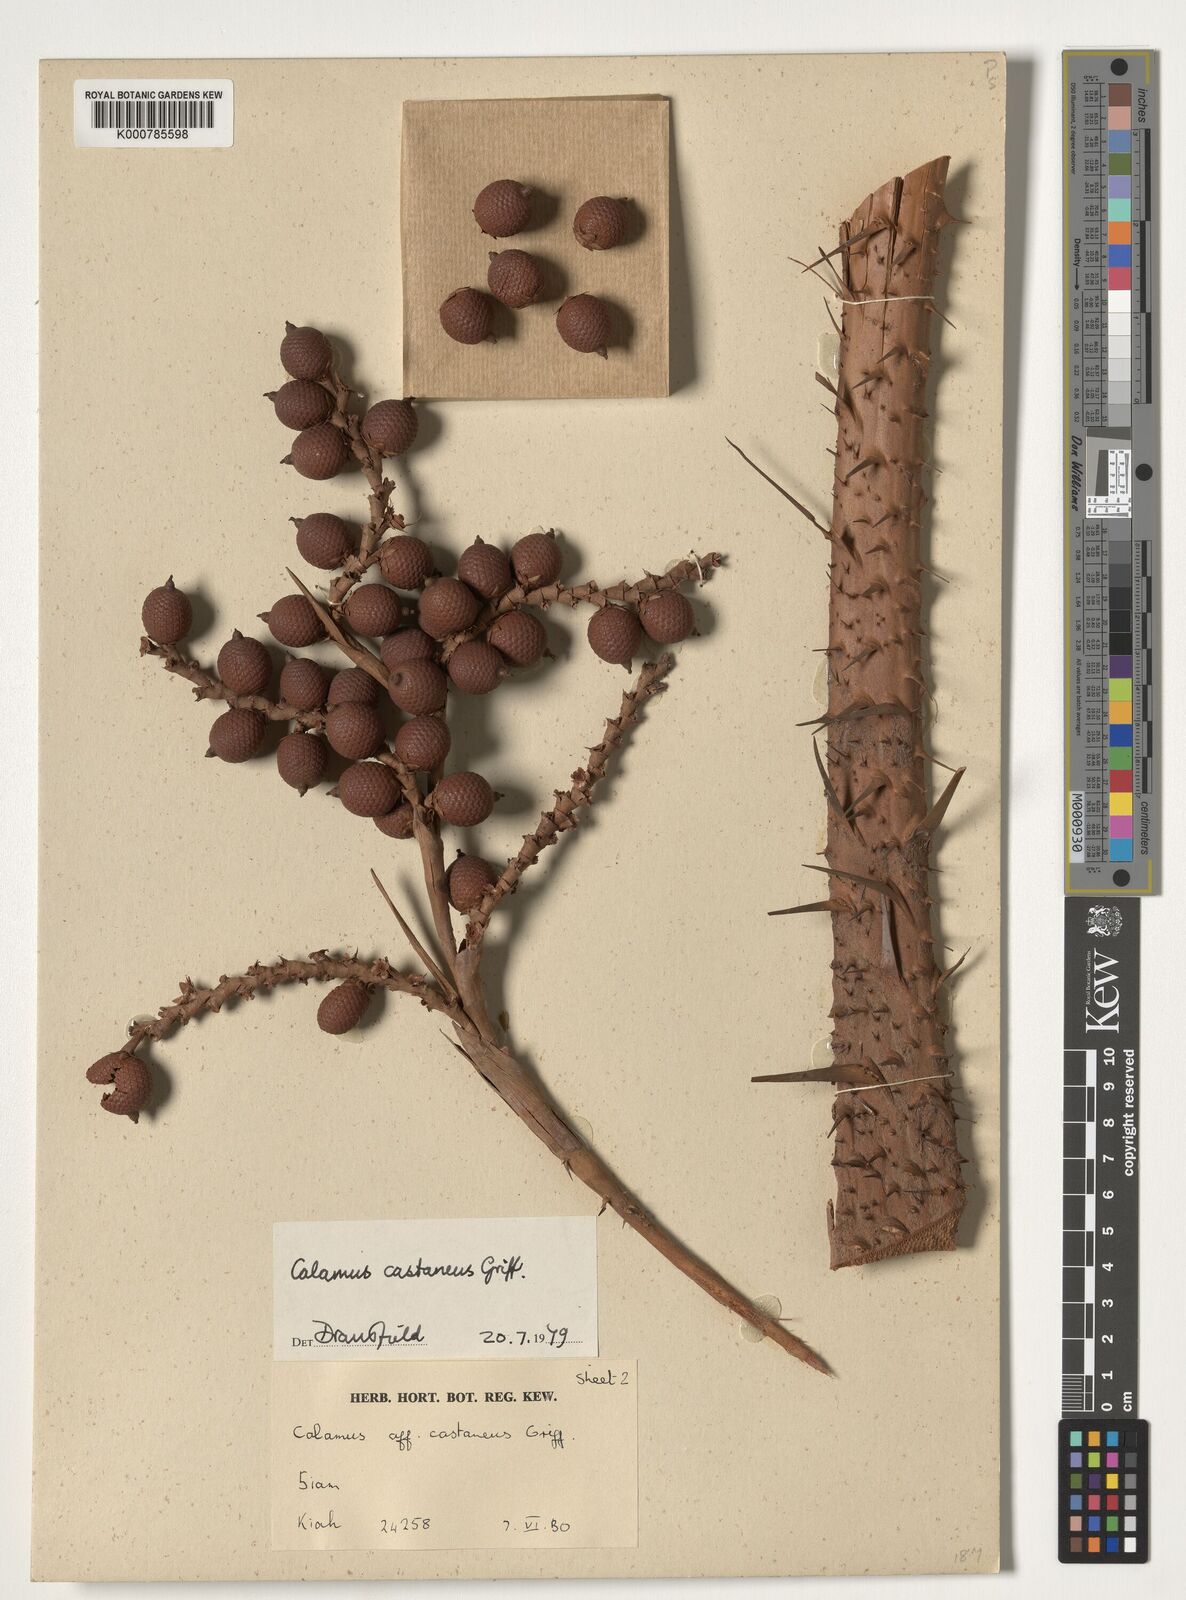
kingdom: Plantae
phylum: Tracheophyta
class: Liliopsida
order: Arecales
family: Arecaceae
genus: Calamus
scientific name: Calamus castaneus
